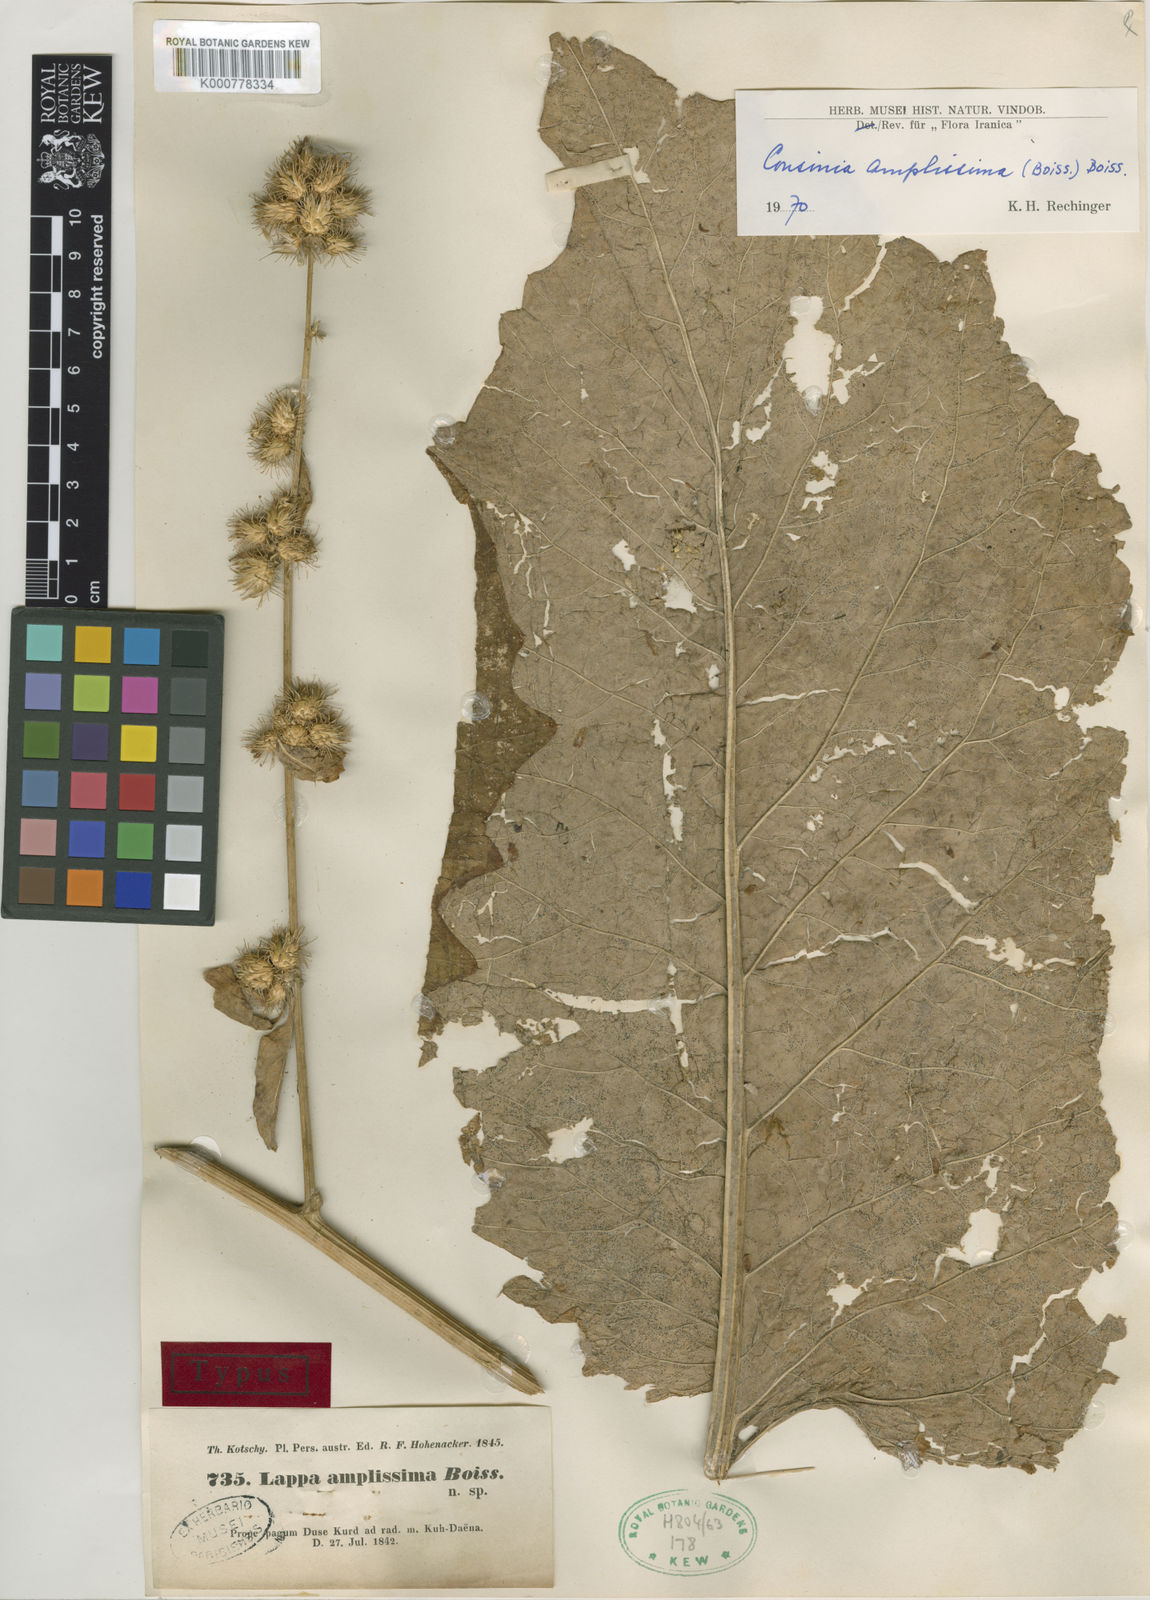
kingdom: Plantae
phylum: Tracheophyta
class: Magnoliopsida
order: Asterales
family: Asteraceae
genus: Arctium
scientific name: Arctium amplissimum
